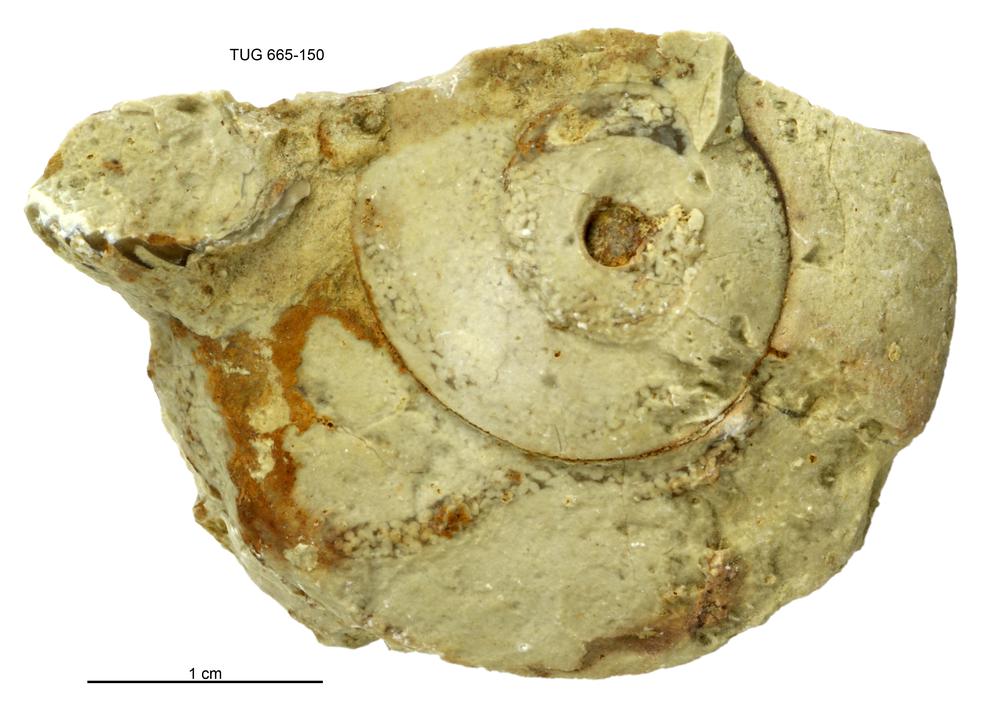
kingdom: Animalia
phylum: Mollusca
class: Gastropoda
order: Pleurotomariida
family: Eotomariidae
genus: Liospira
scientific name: Liospira Raphistoma wesenbergense
